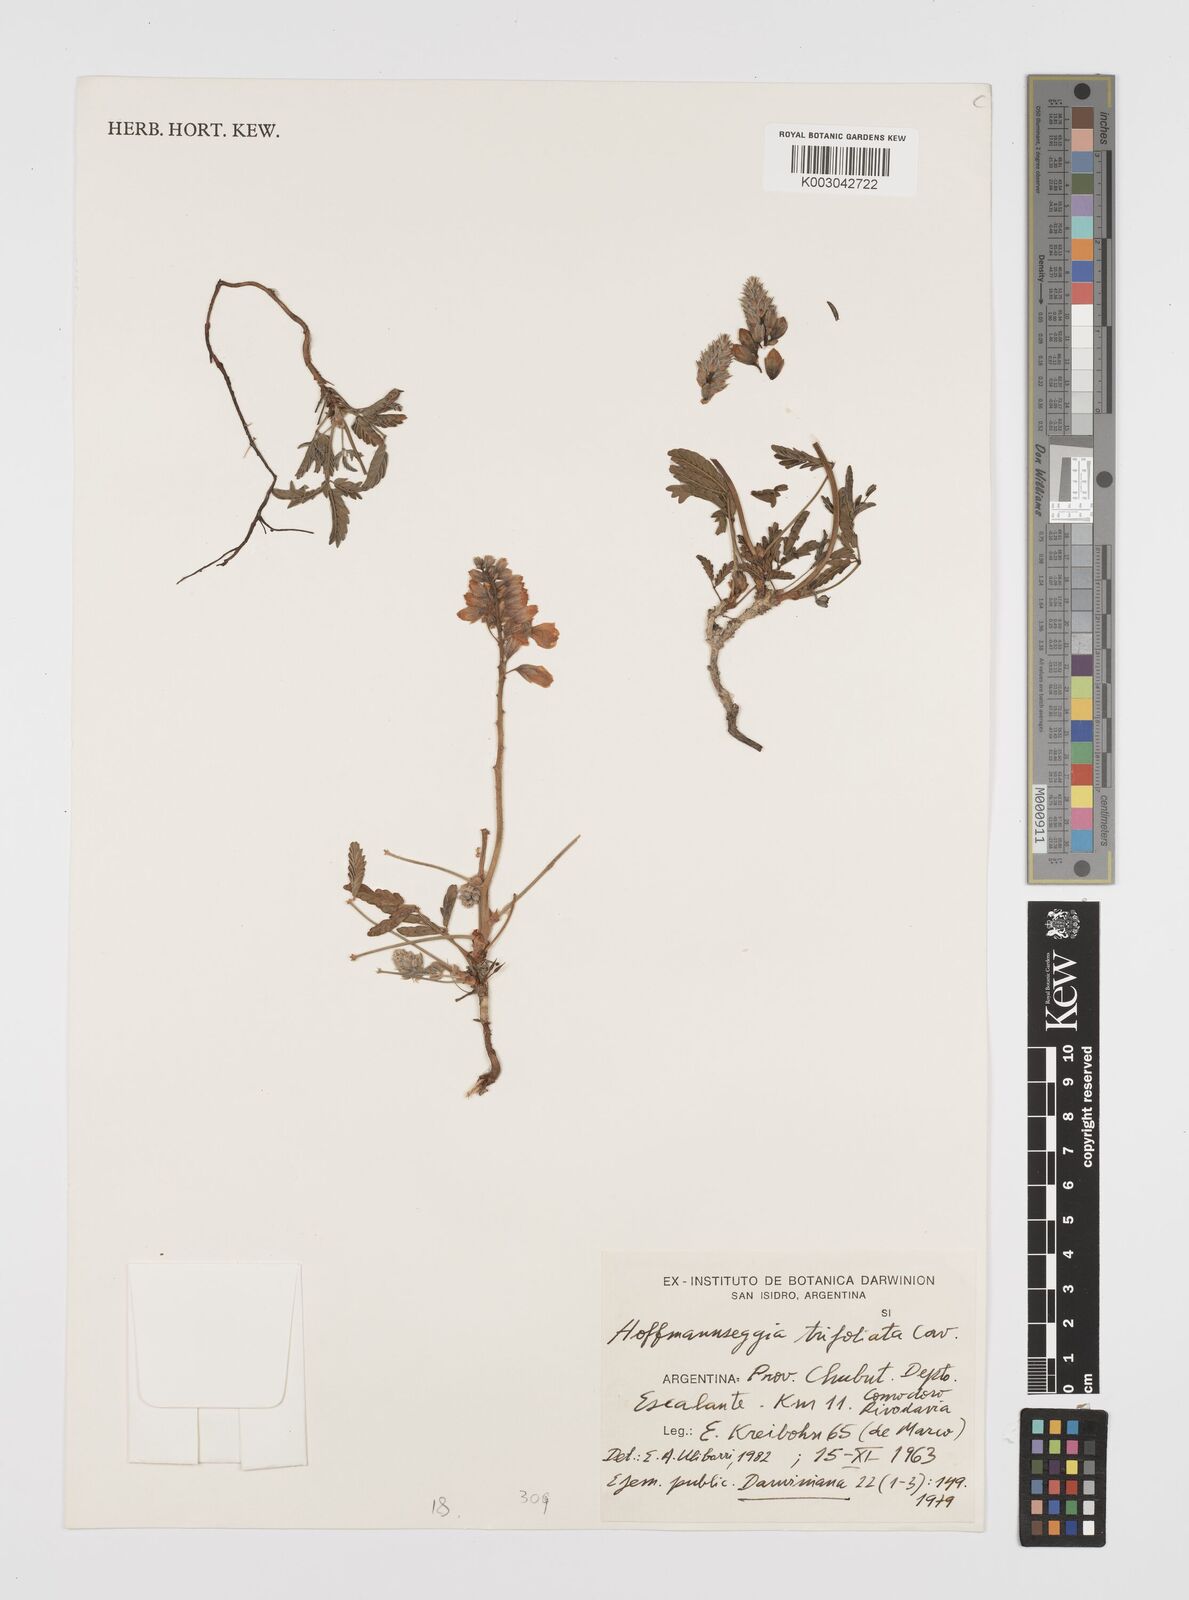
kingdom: Plantae
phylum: Tracheophyta
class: Magnoliopsida
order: Fabales
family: Fabaceae
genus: Hoffmannseggia
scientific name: Hoffmannseggia trifoliata
